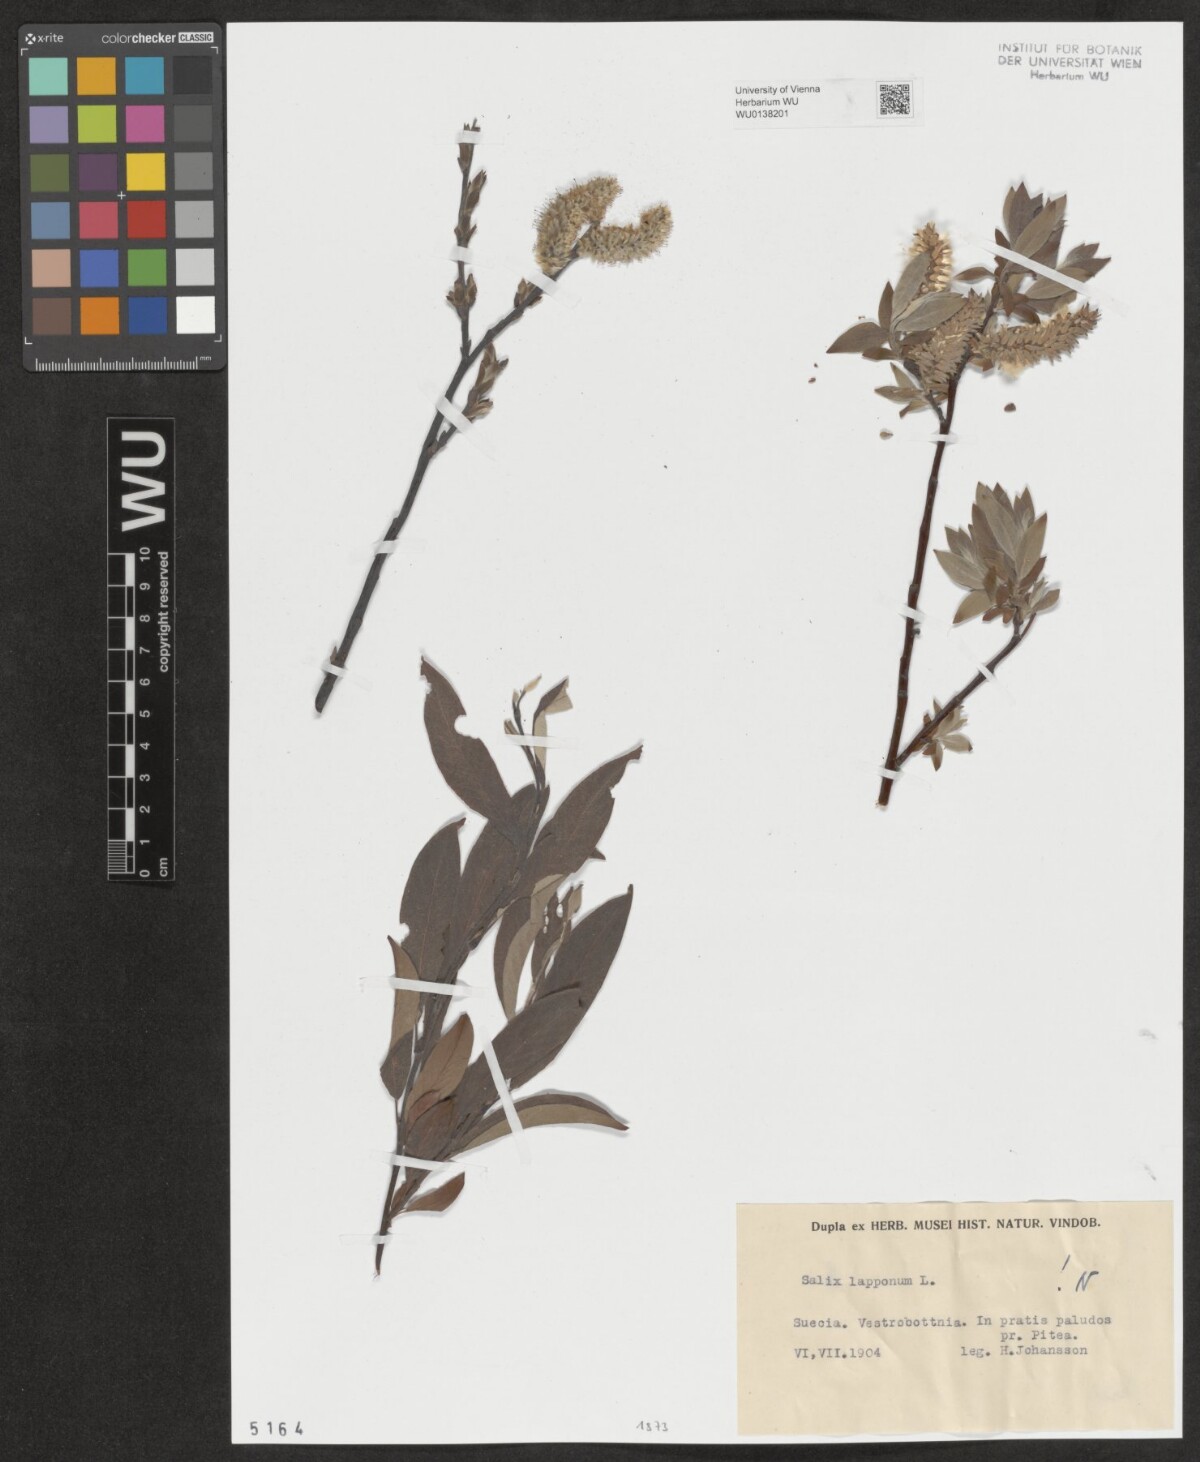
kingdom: Plantae
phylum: Tracheophyta
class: Magnoliopsida
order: Malpighiales
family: Salicaceae
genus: Salix
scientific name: Salix lapponum
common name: Downy willow
